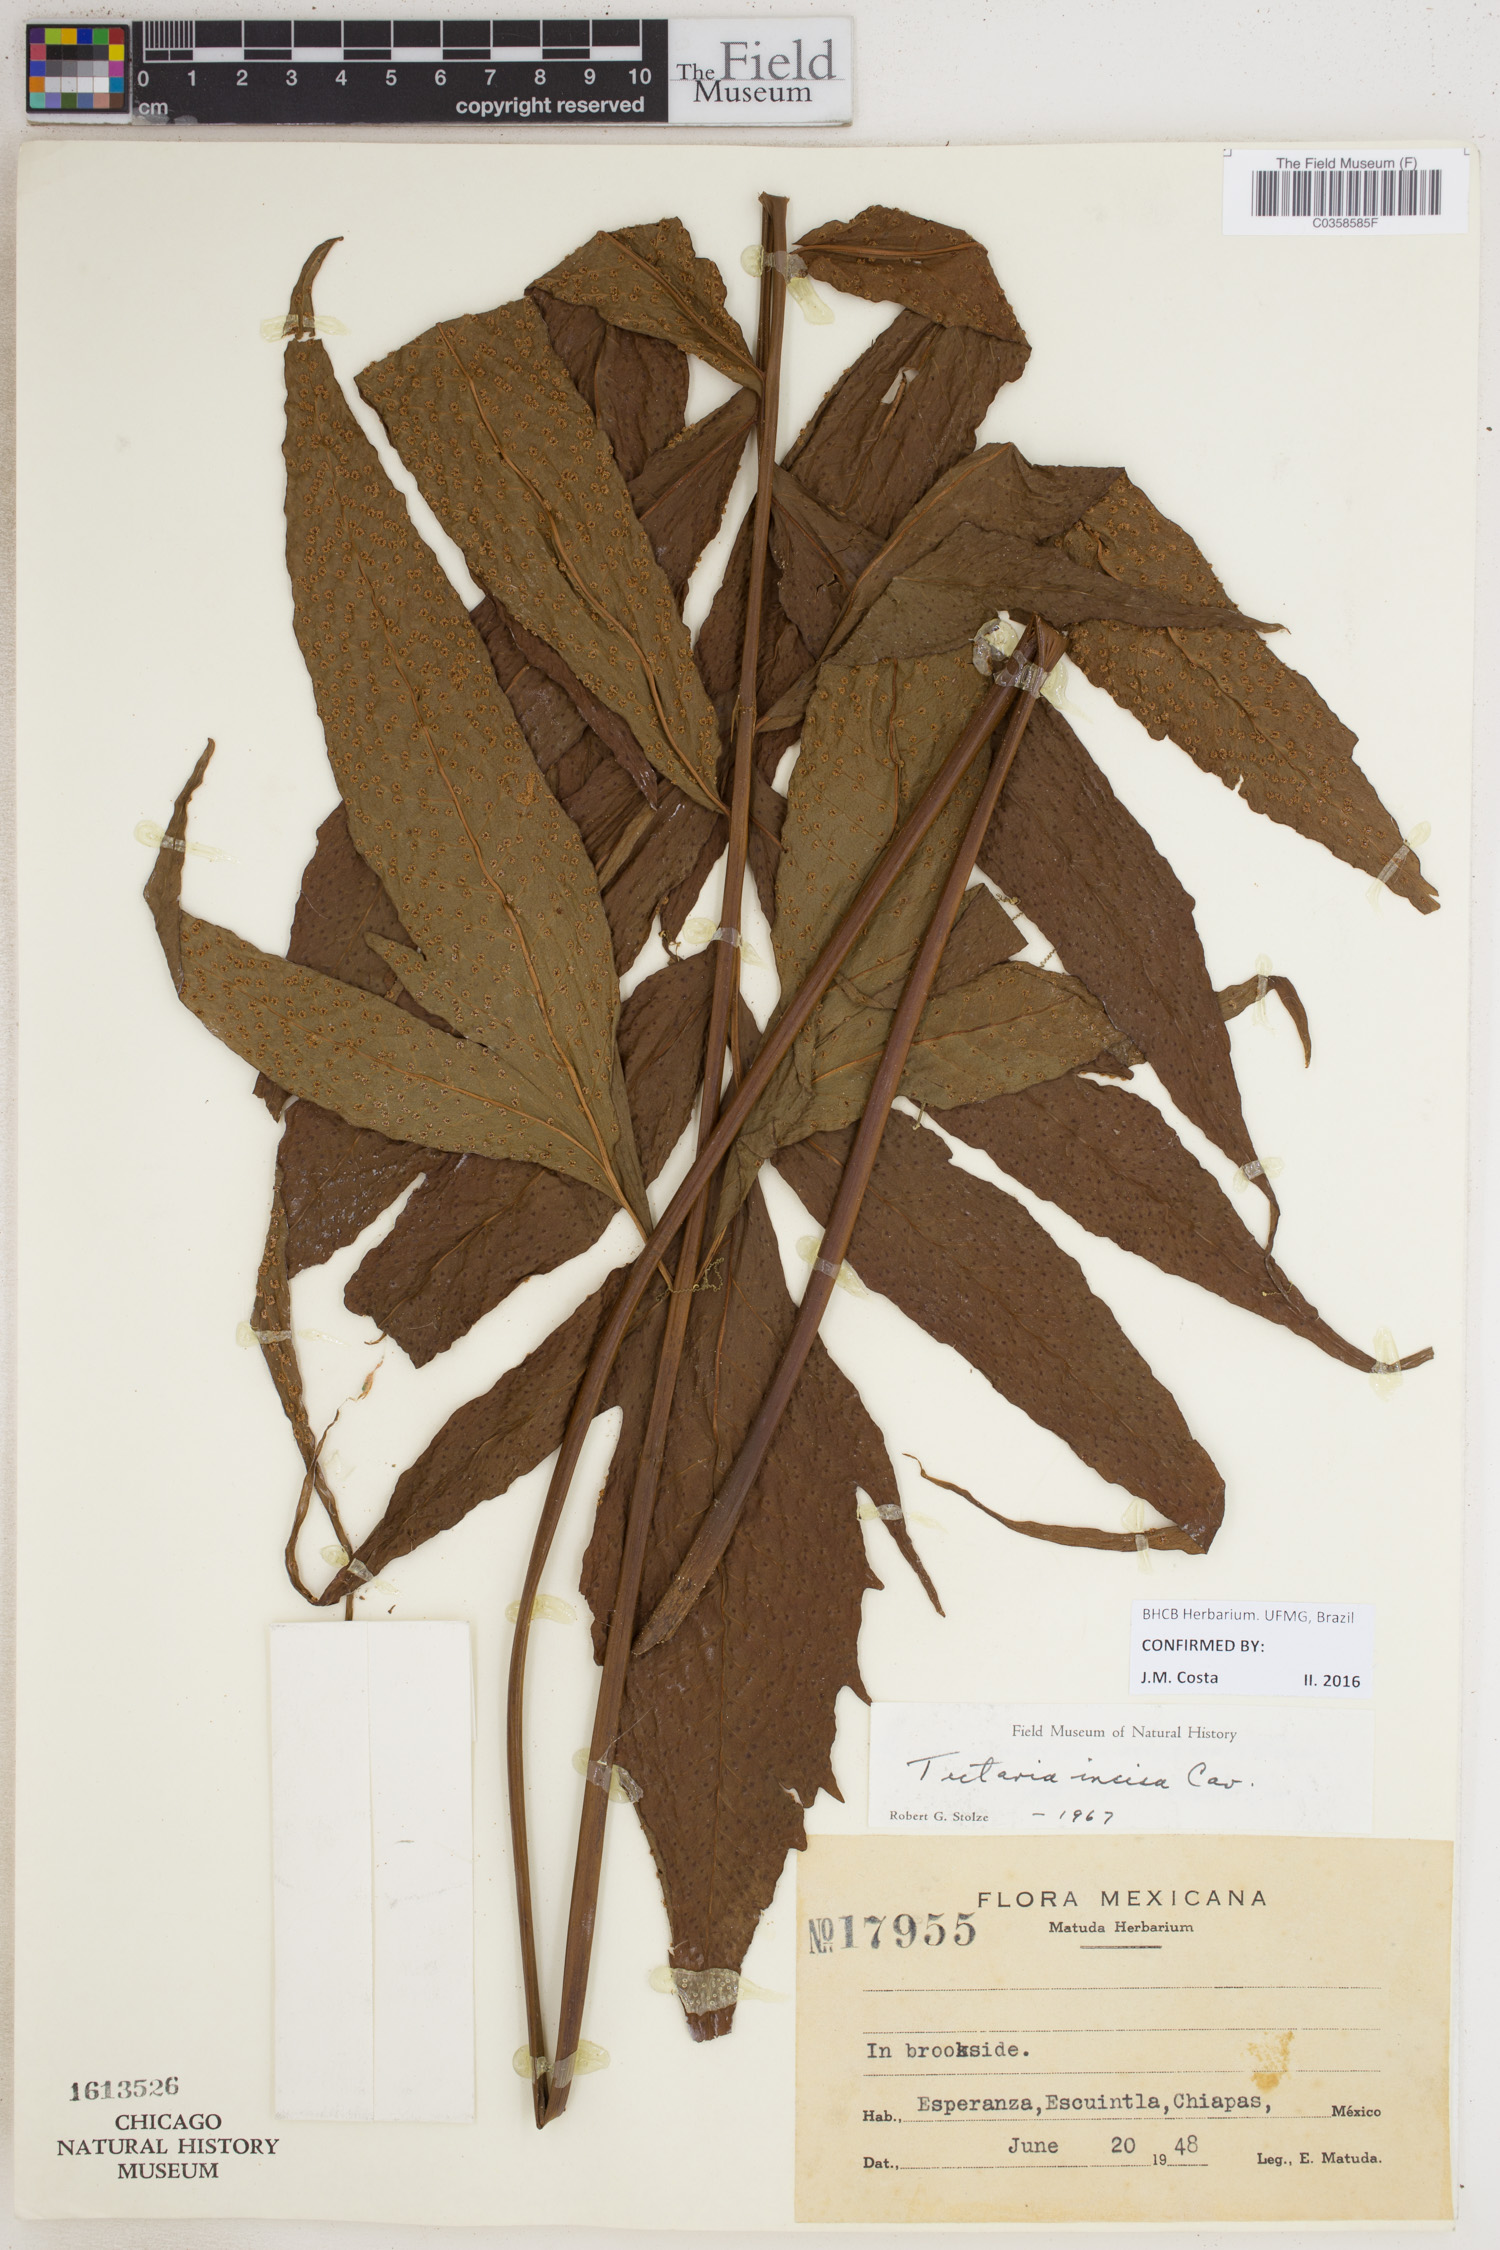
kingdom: Plantae
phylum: Tracheophyta
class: Polypodiopsida
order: Polypodiales
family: Tectariaceae
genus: Tectaria
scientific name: Tectaria incisa
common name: Incised halberd fern
